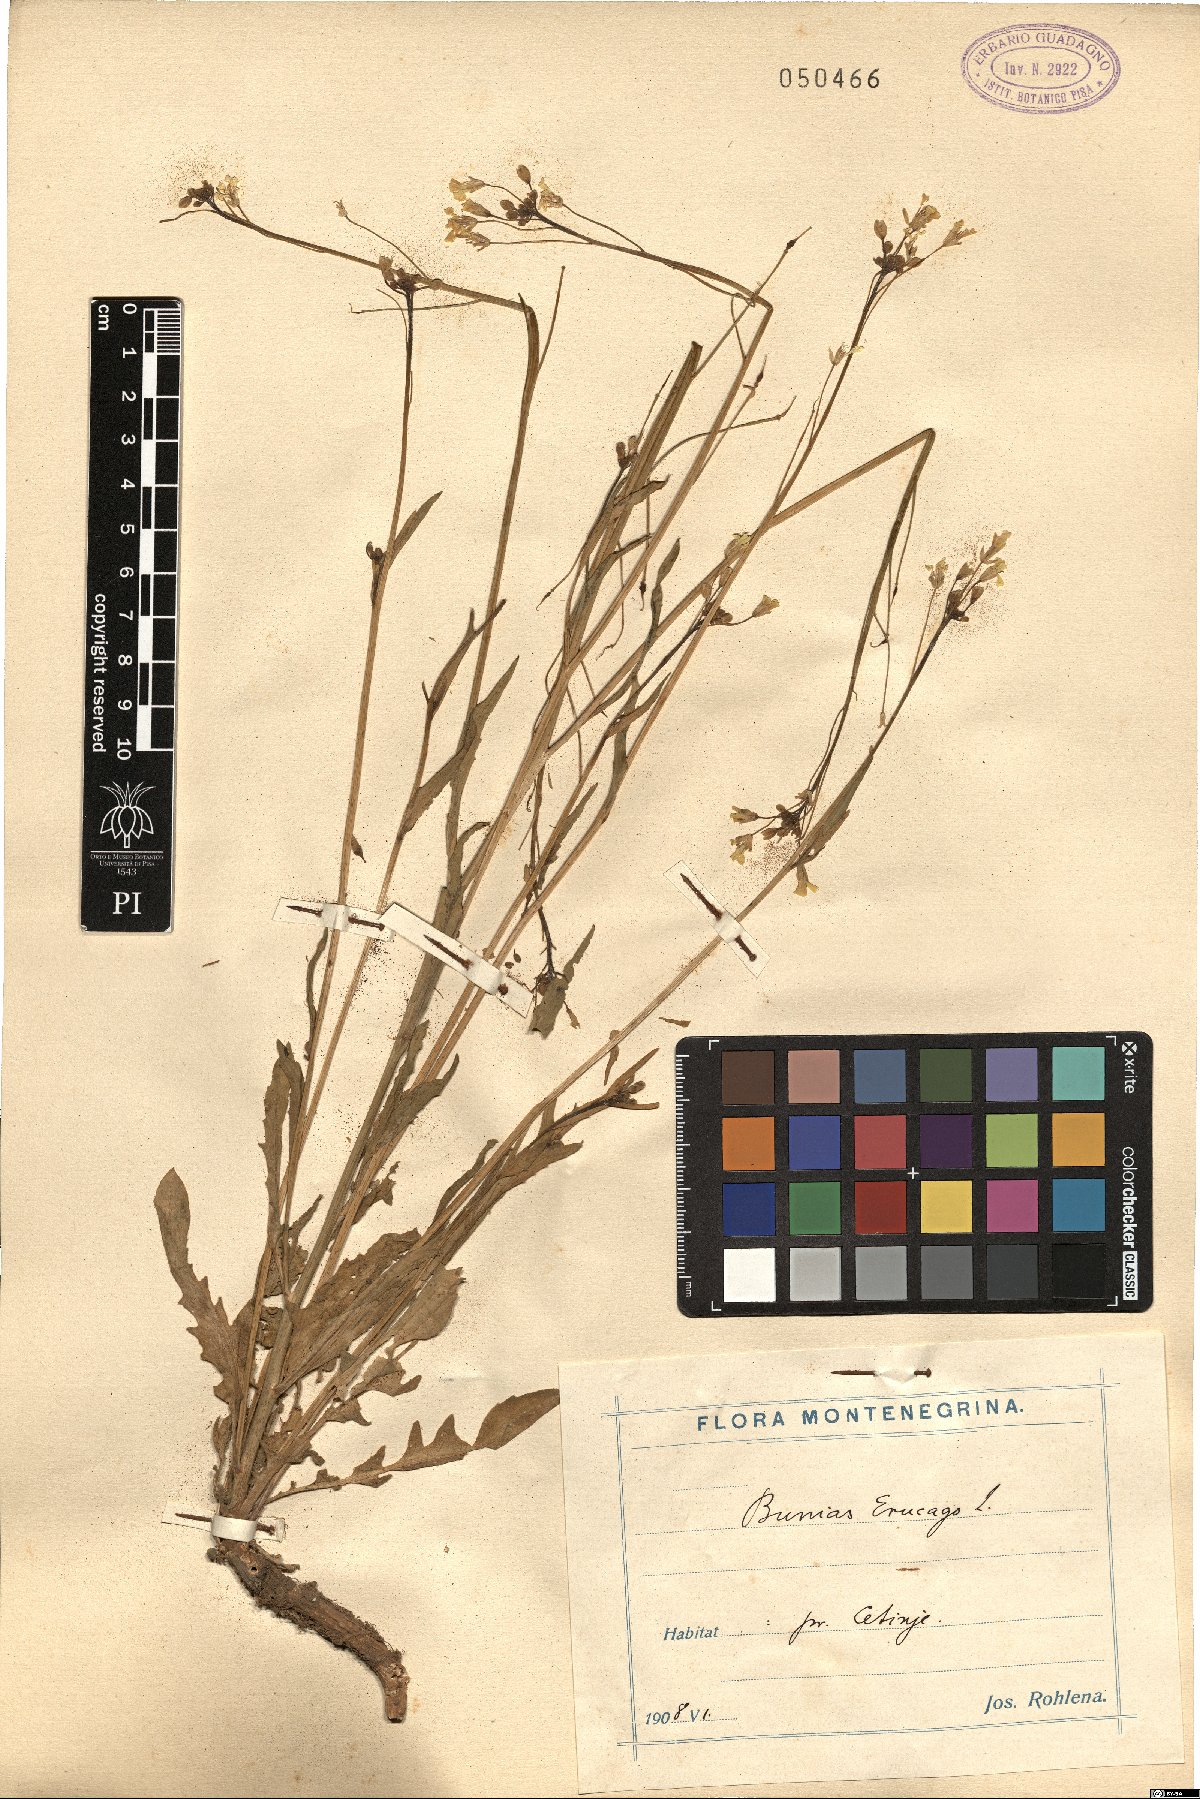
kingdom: Plantae
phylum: Tracheophyta
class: Magnoliopsida
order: Brassicales
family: Brassicaceae
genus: Bunias
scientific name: Bunias erucago
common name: Southern warty-cabbage
